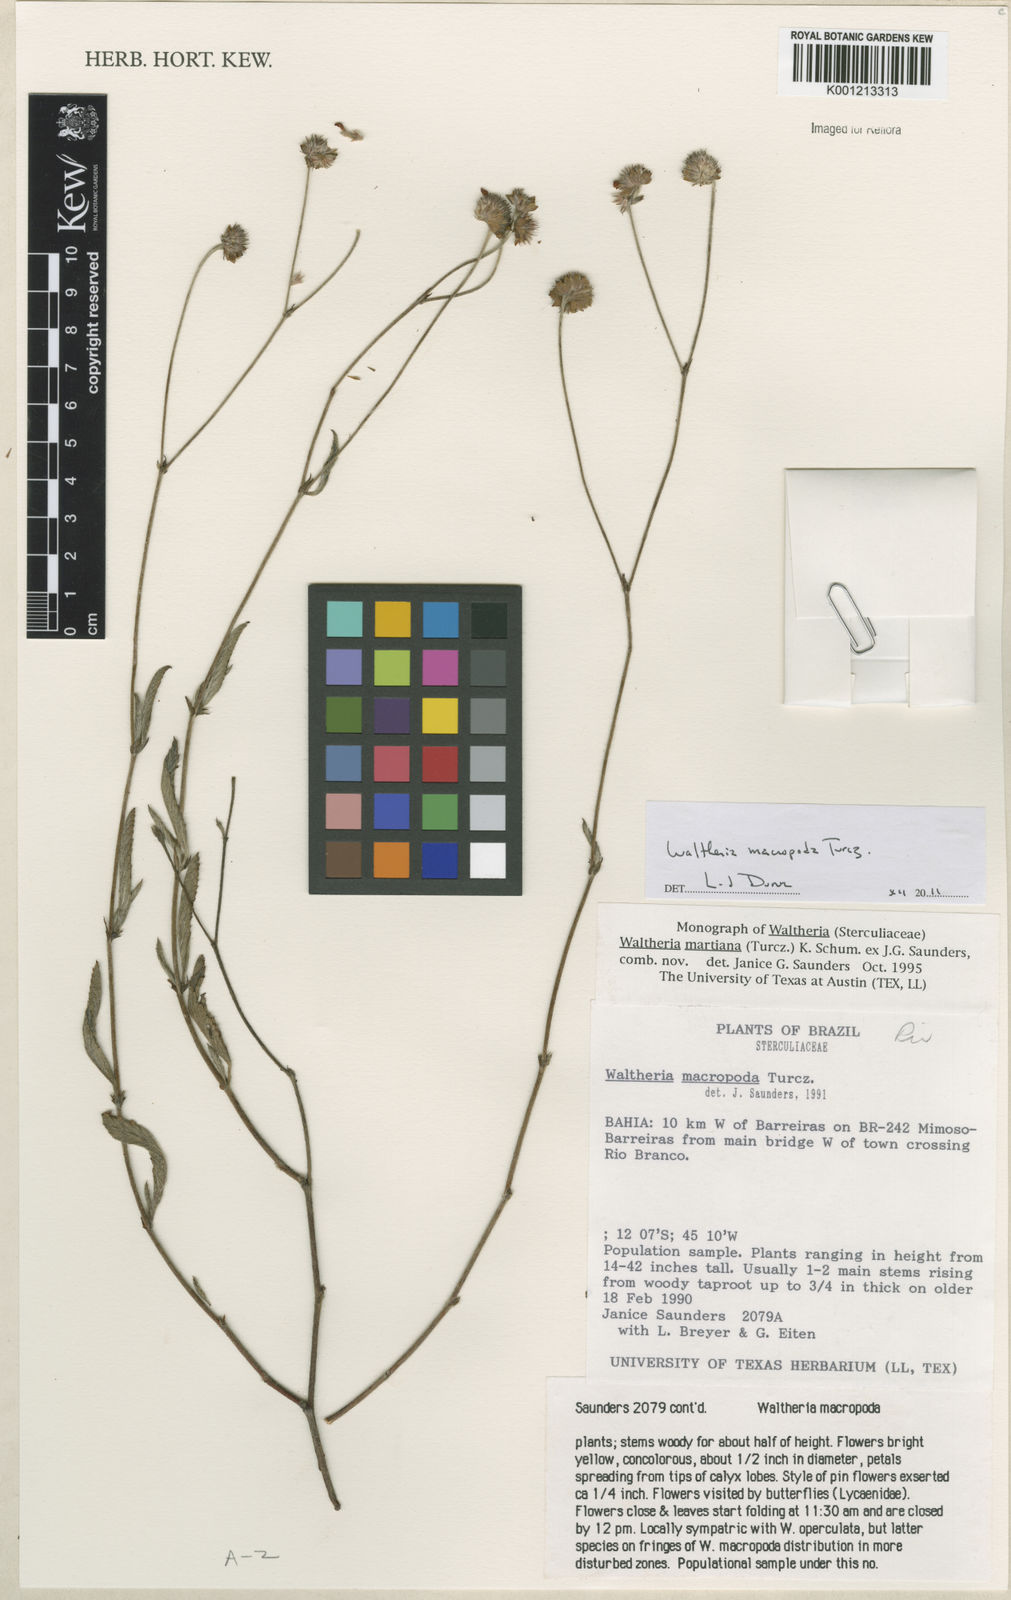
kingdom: Plantae
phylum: Tracheophyta
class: Magnoliopsida
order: Malvales
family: Malvaceae
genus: Waltheria
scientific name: Waltheria bracteosa
